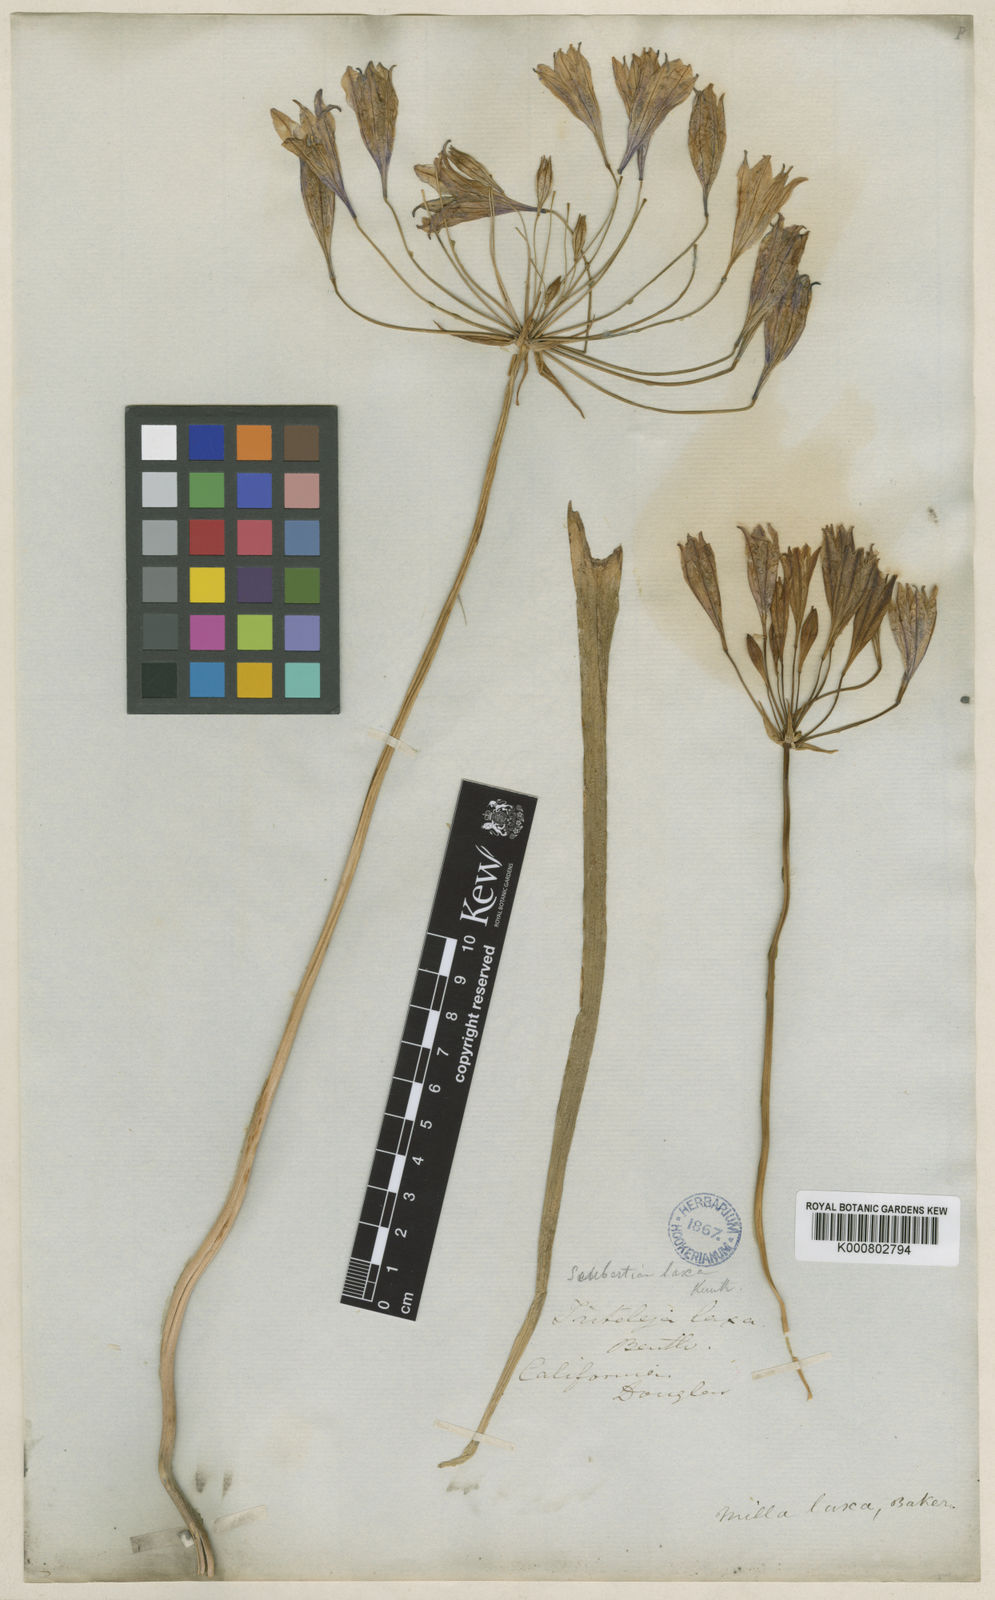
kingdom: Plantae
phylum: Tracheophyta
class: Liliopsida
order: Asparagales
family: Asparagaceae
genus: Triteleia
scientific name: Triteleia laxa
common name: Triplet-lily
